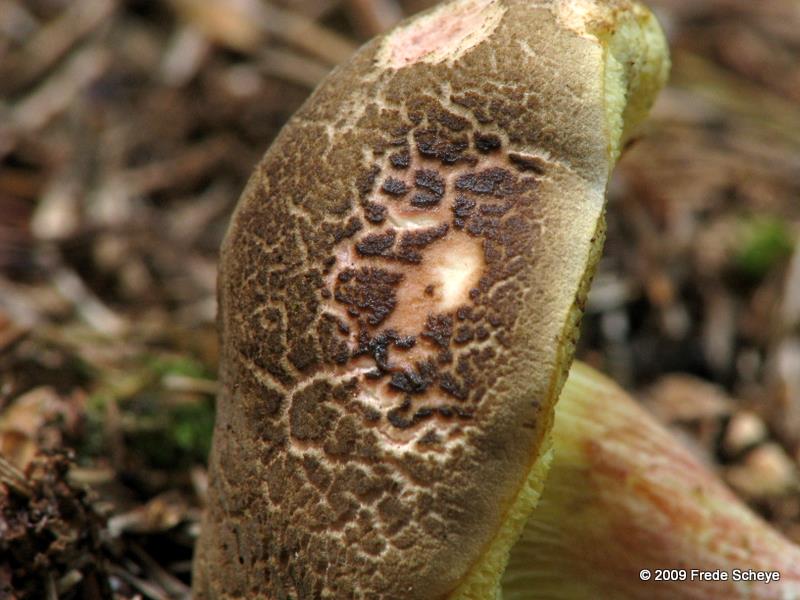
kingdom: Fungi
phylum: Basidiomycota
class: Agaricomycetes
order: Boletales
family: Boletaceae
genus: Xerocomellus
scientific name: Xerocomellus chrysenteron
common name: rødsprukken rørhat
